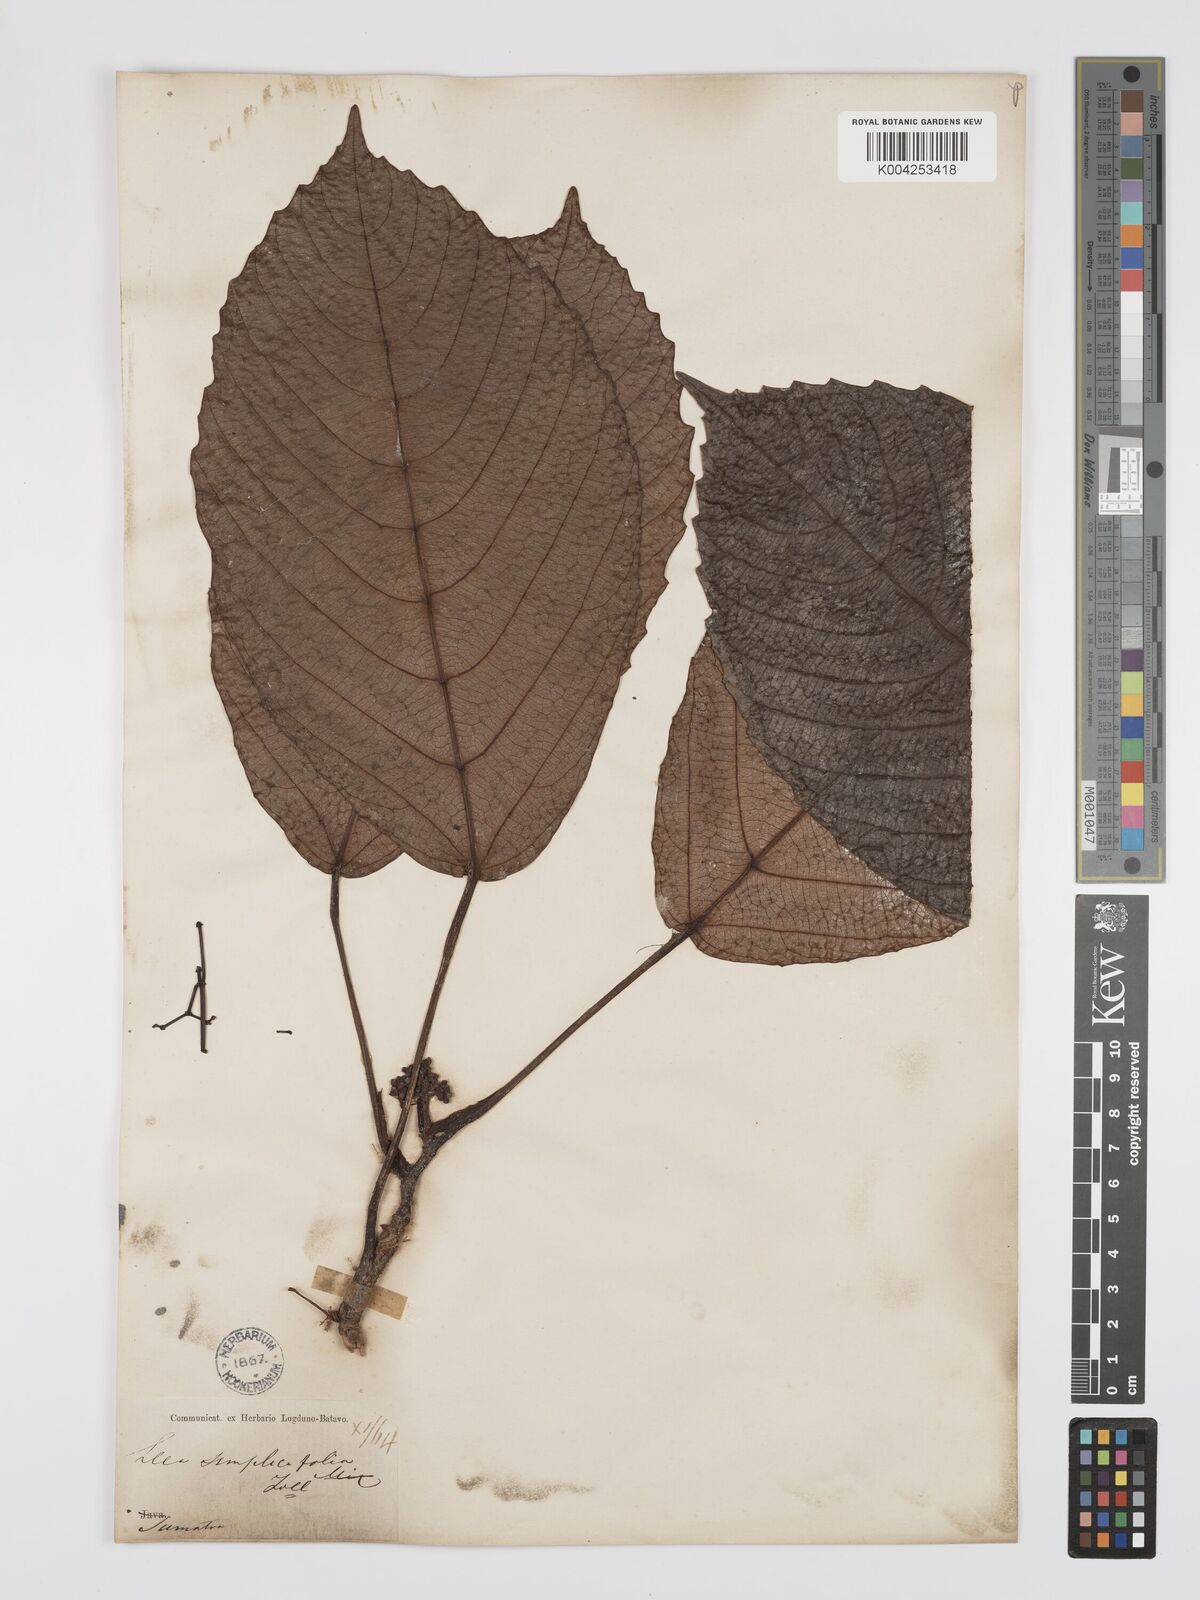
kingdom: Plantae
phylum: Tracheophyta
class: Magnoliopsida
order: Vitales
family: Vitaceae
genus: Leea
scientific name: Leea
